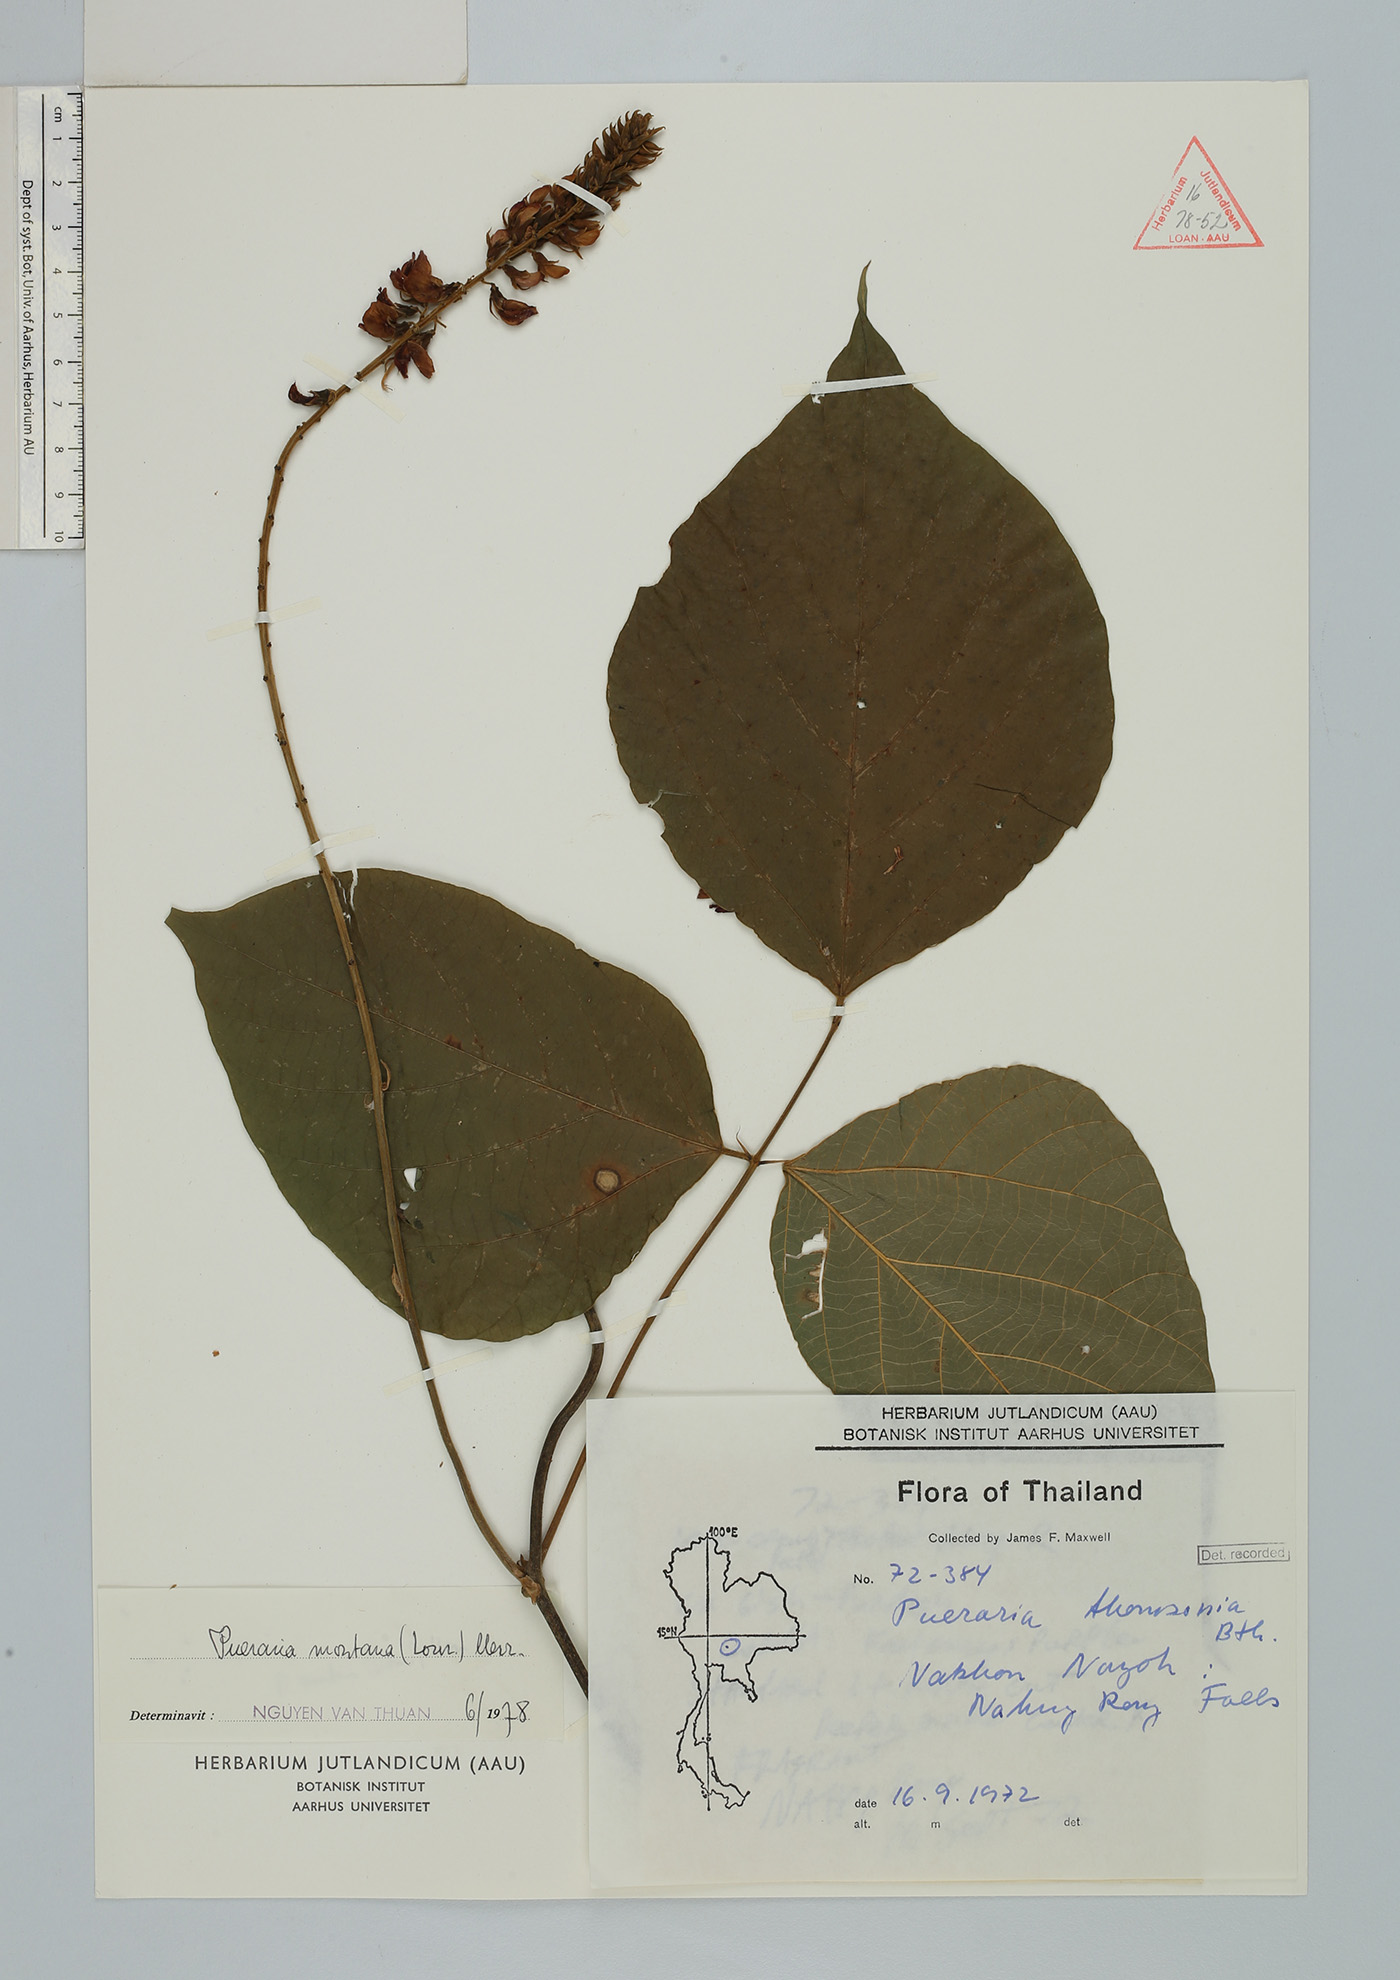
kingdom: Plantae
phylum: Tracheophyta
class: Magnoliopsida
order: Fabales
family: Fabaceae
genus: Pueraria
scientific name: Pueraria montana
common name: Kudzu
